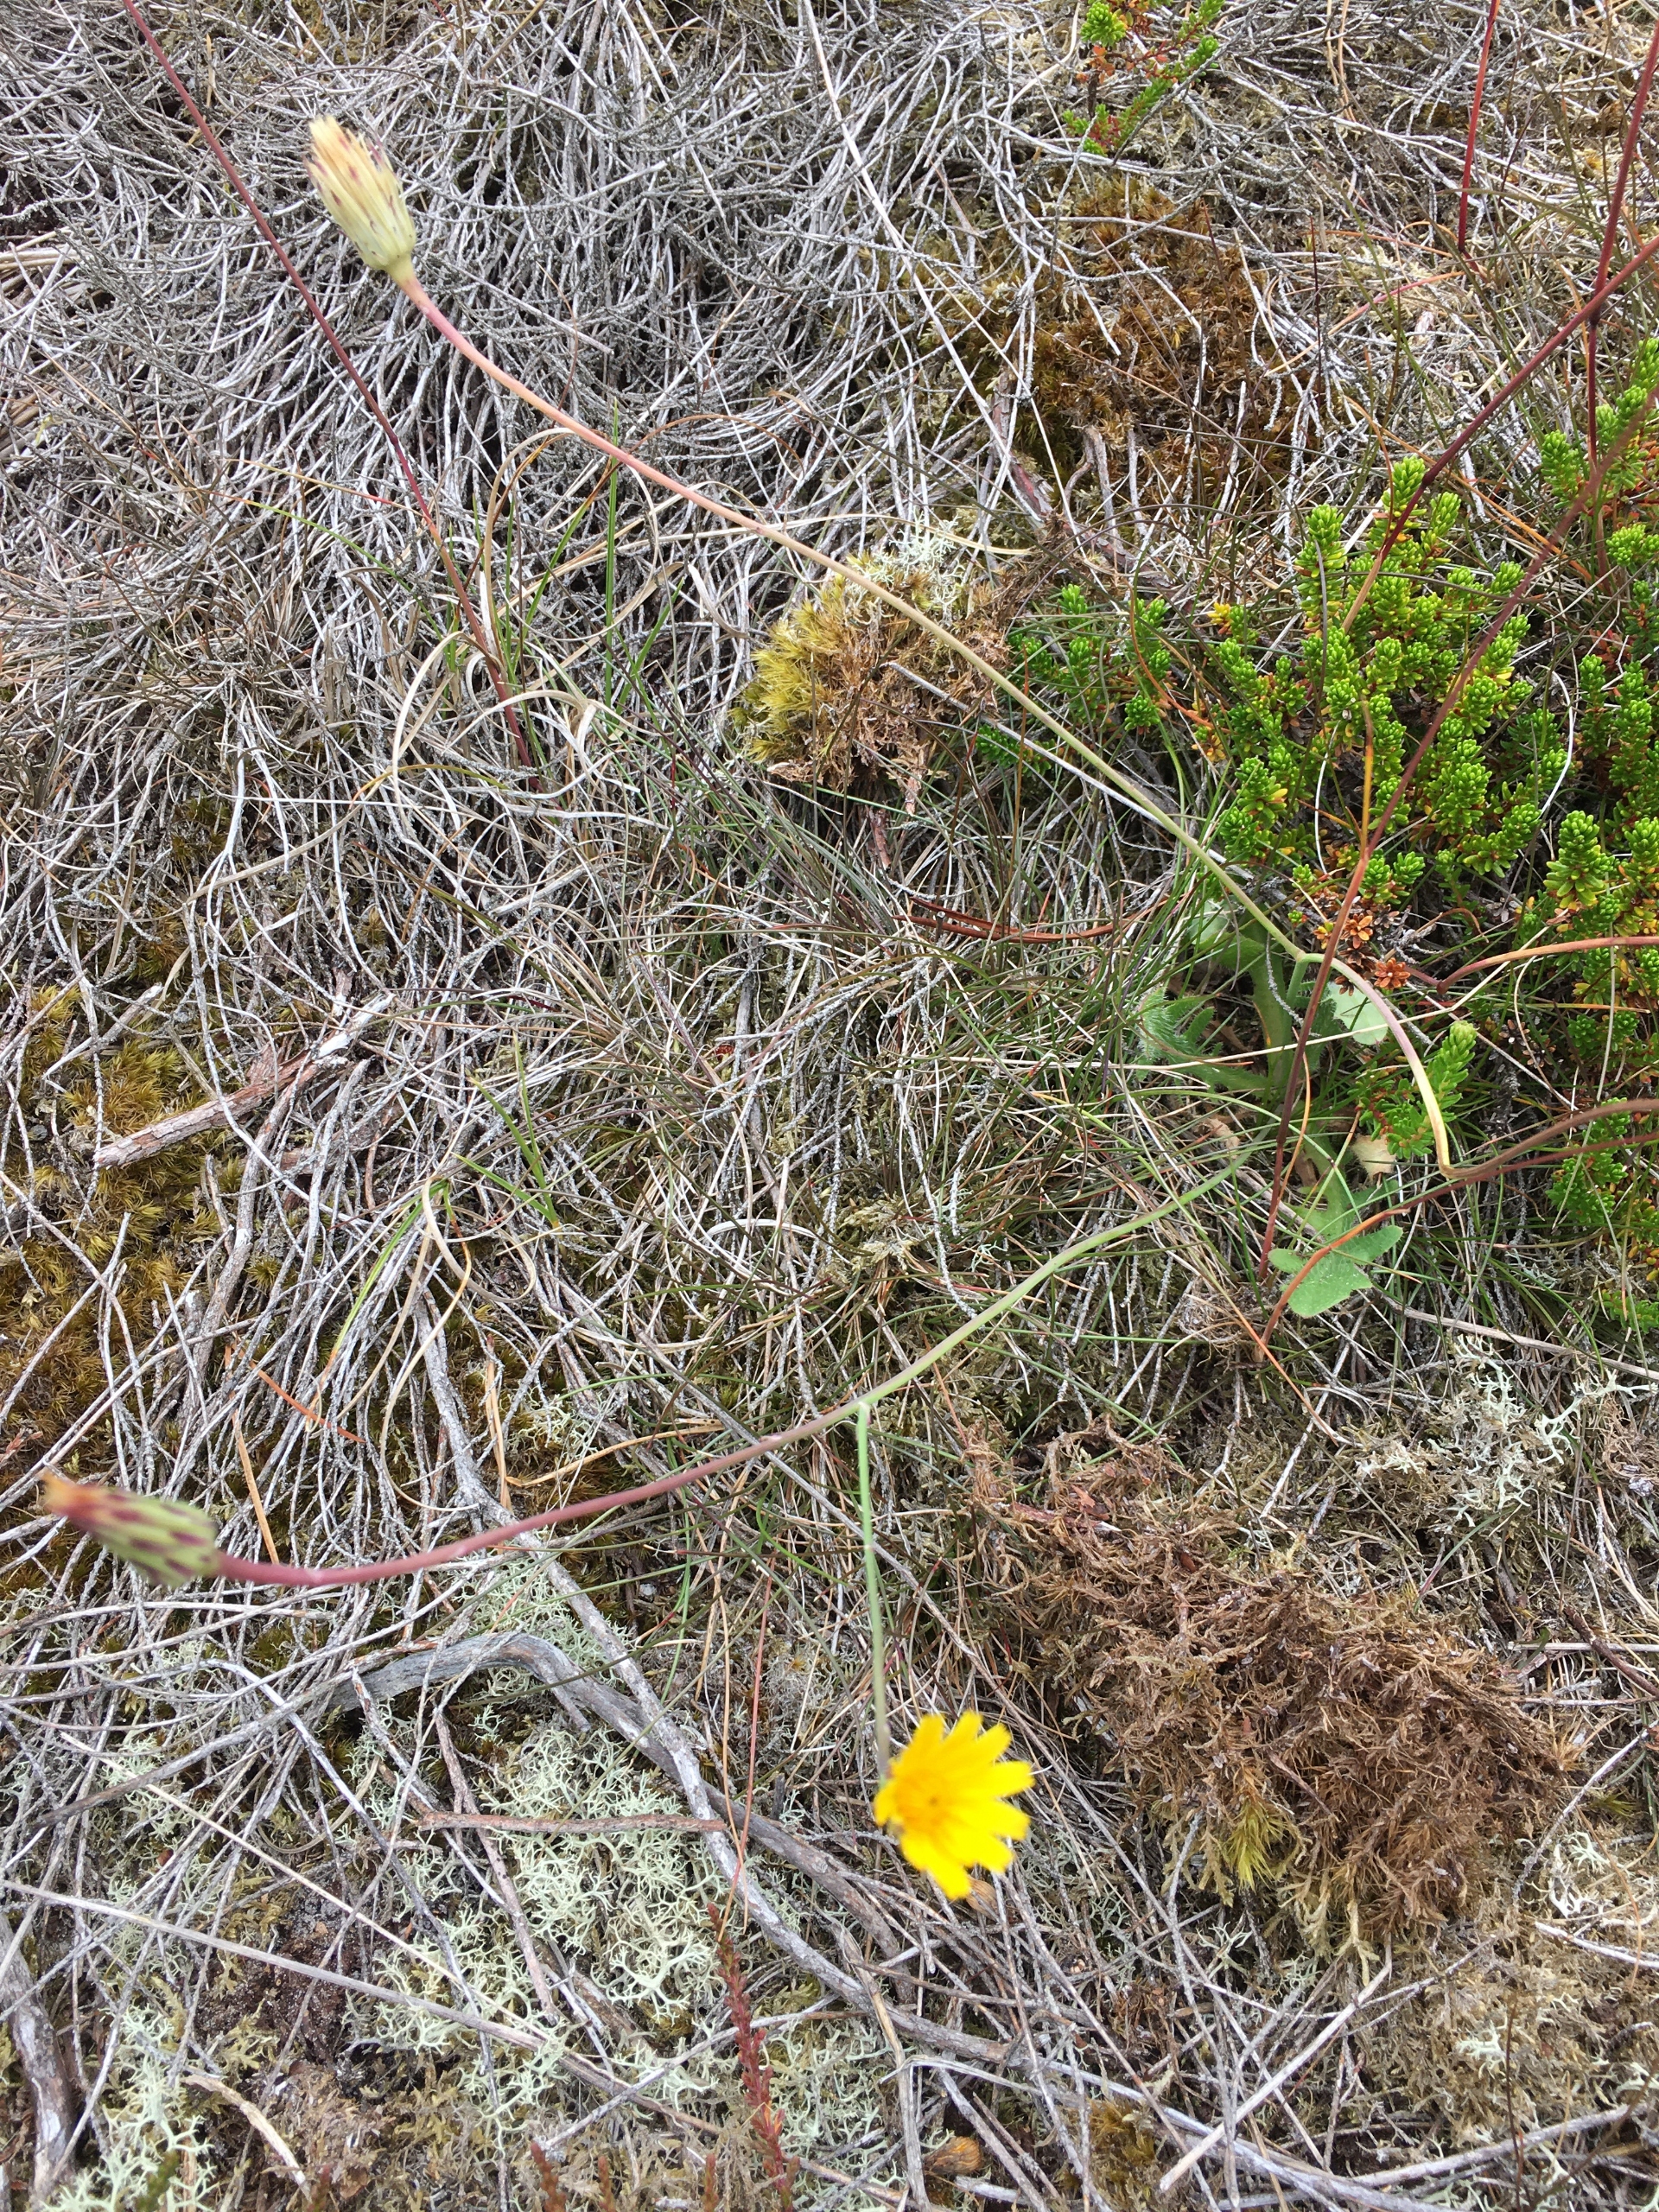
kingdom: Plantae
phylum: Tracheophyta
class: Magnoliopsida
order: Asterales
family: Asteraceae
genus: Hypochaeris
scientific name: Hypochaeris radicata
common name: Almindelig kongepen
